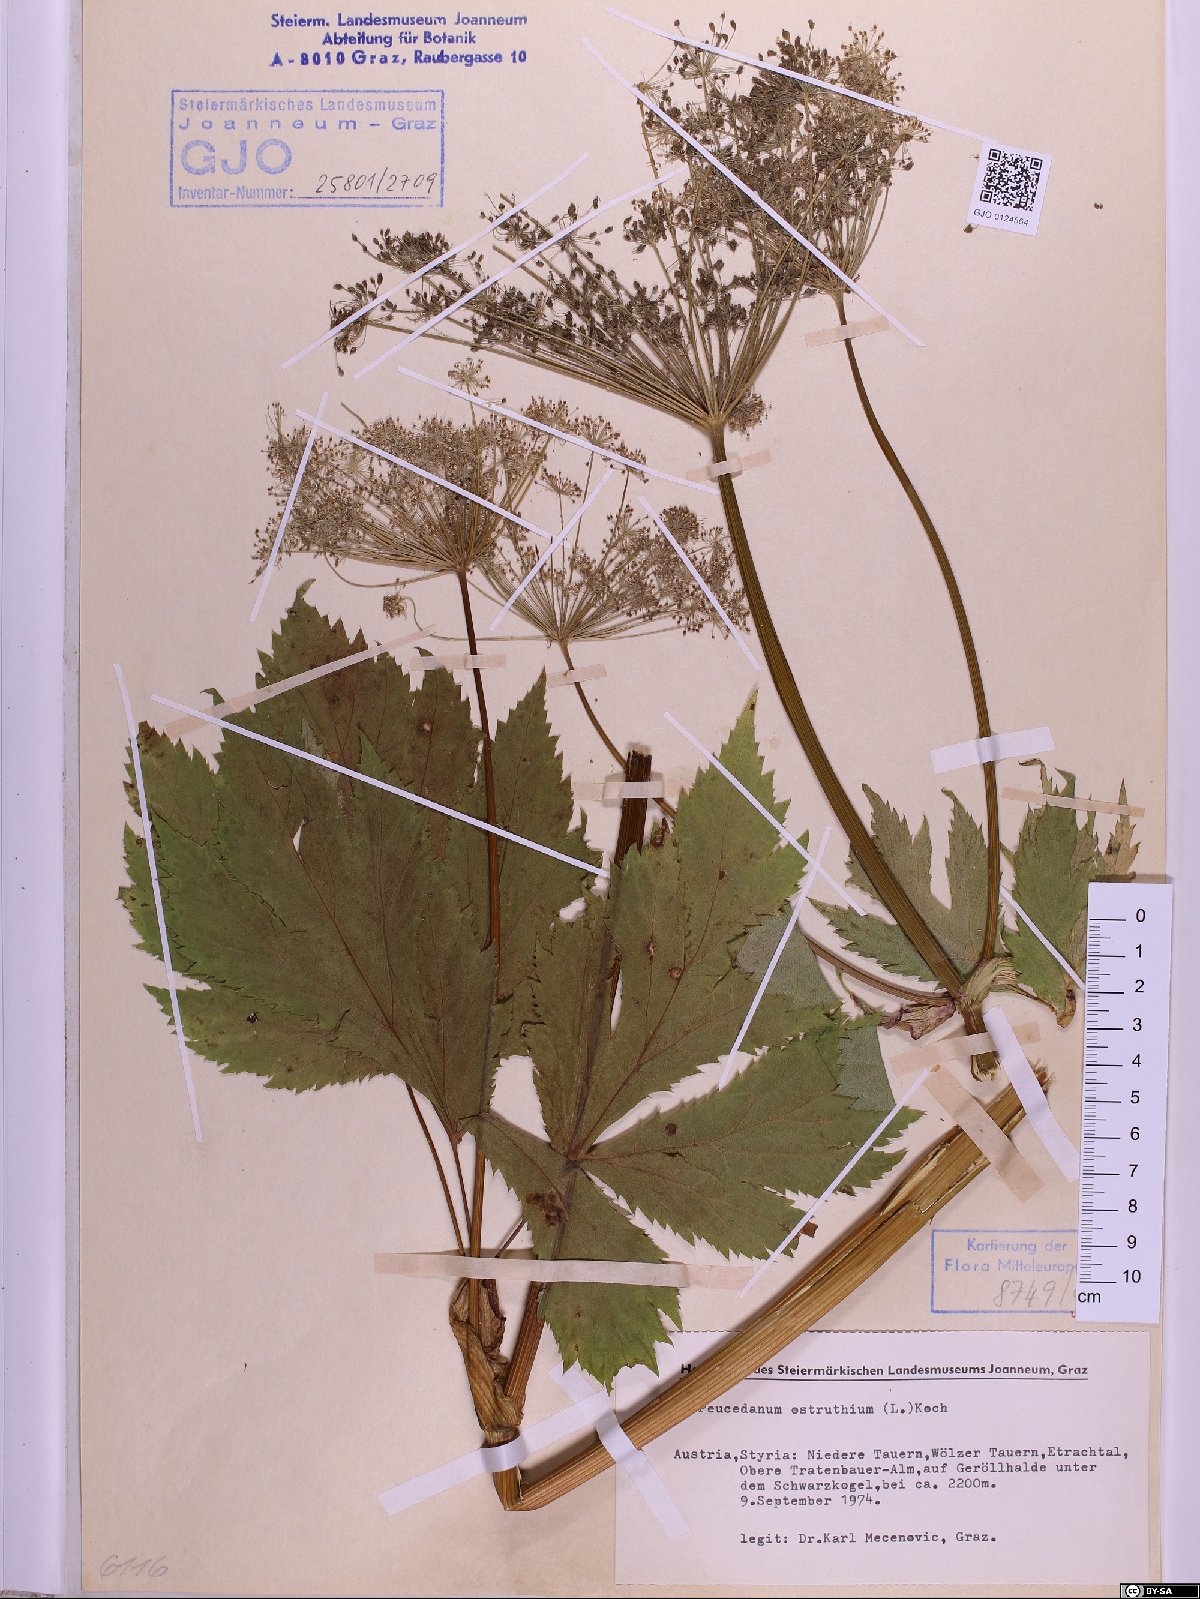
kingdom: Plantae
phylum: Tracheophyta
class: Magnoliopsida
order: Apiales
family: Apiaceae
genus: Imperatoria
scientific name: Imperatoria ostruthium
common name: Masterwort
